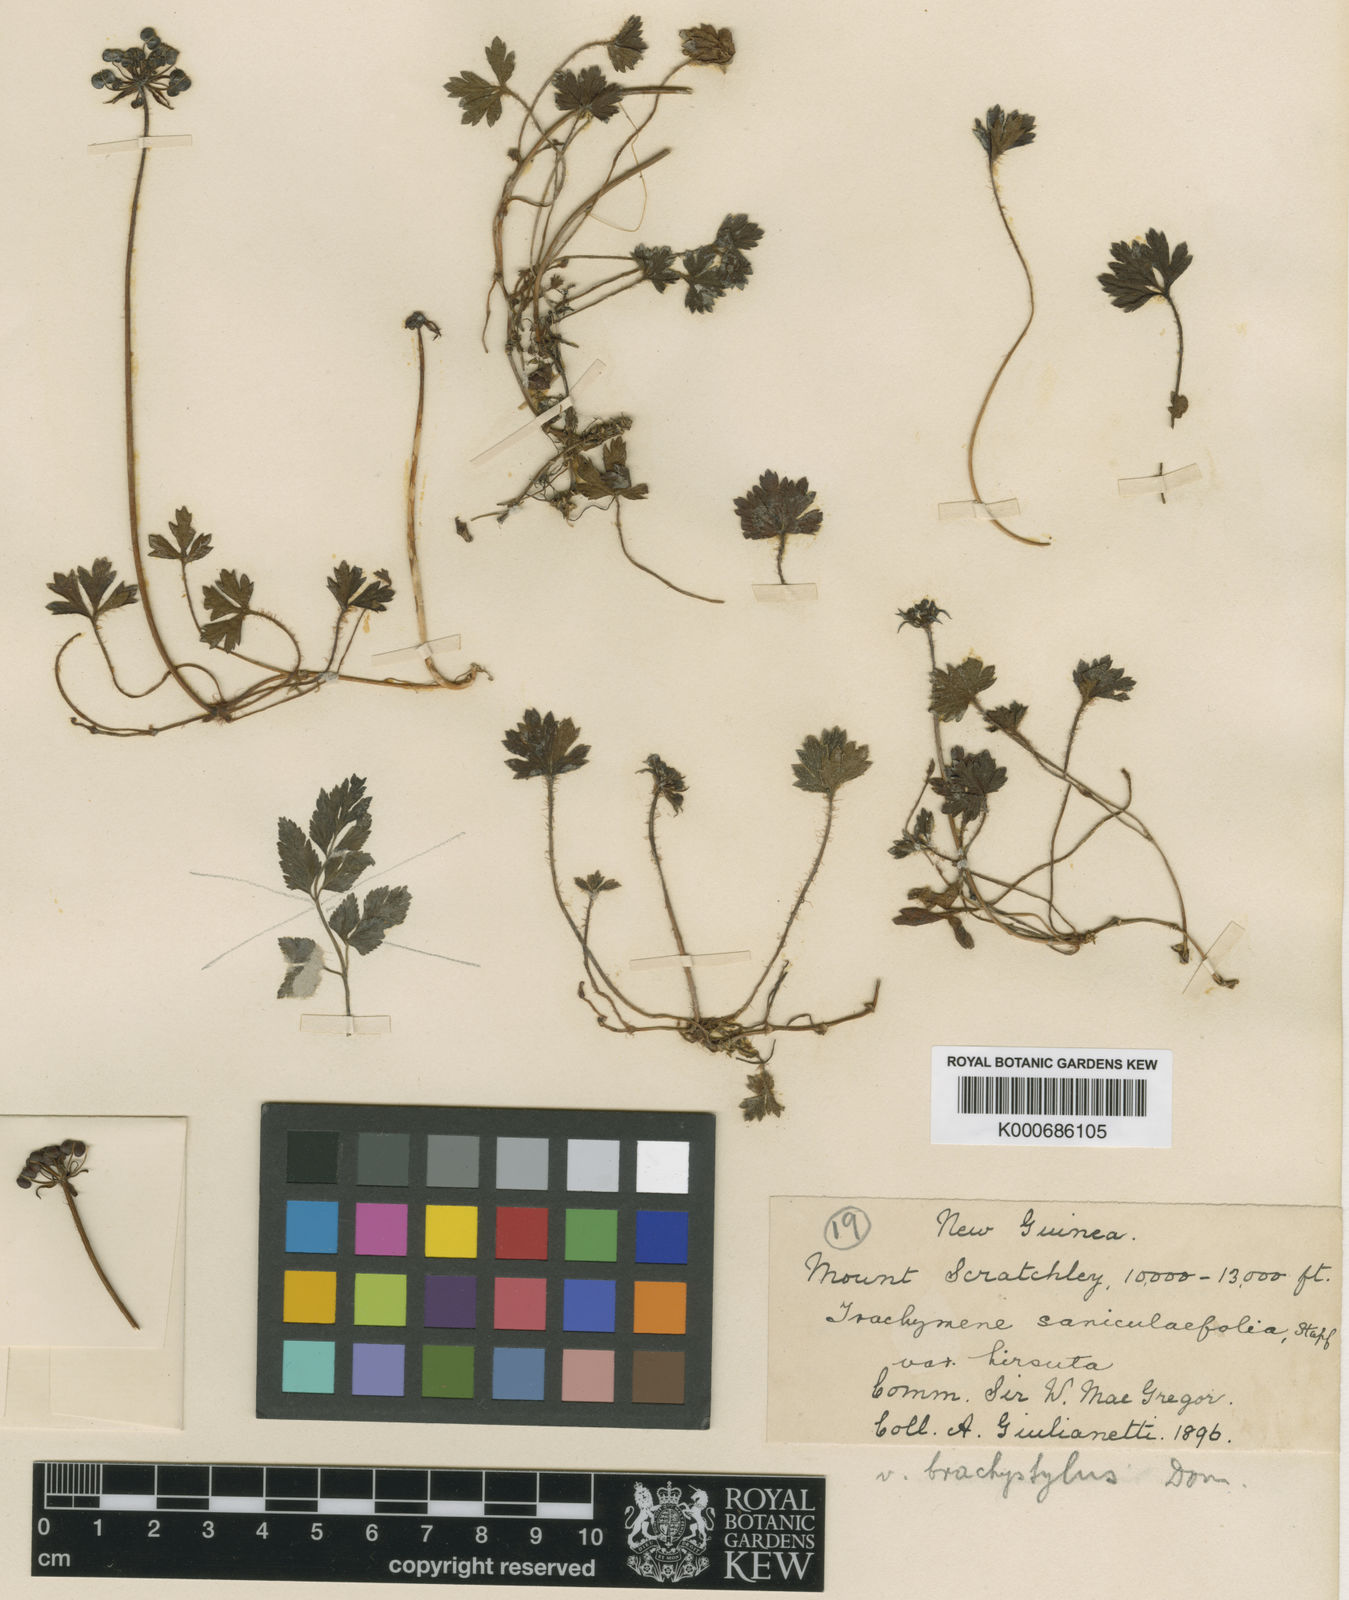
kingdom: Plantae
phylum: Tracheophyta
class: Magnoliopsida
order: Apiales
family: Araliaceae
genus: Trachymene
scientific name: Trachymene saniculifolia
